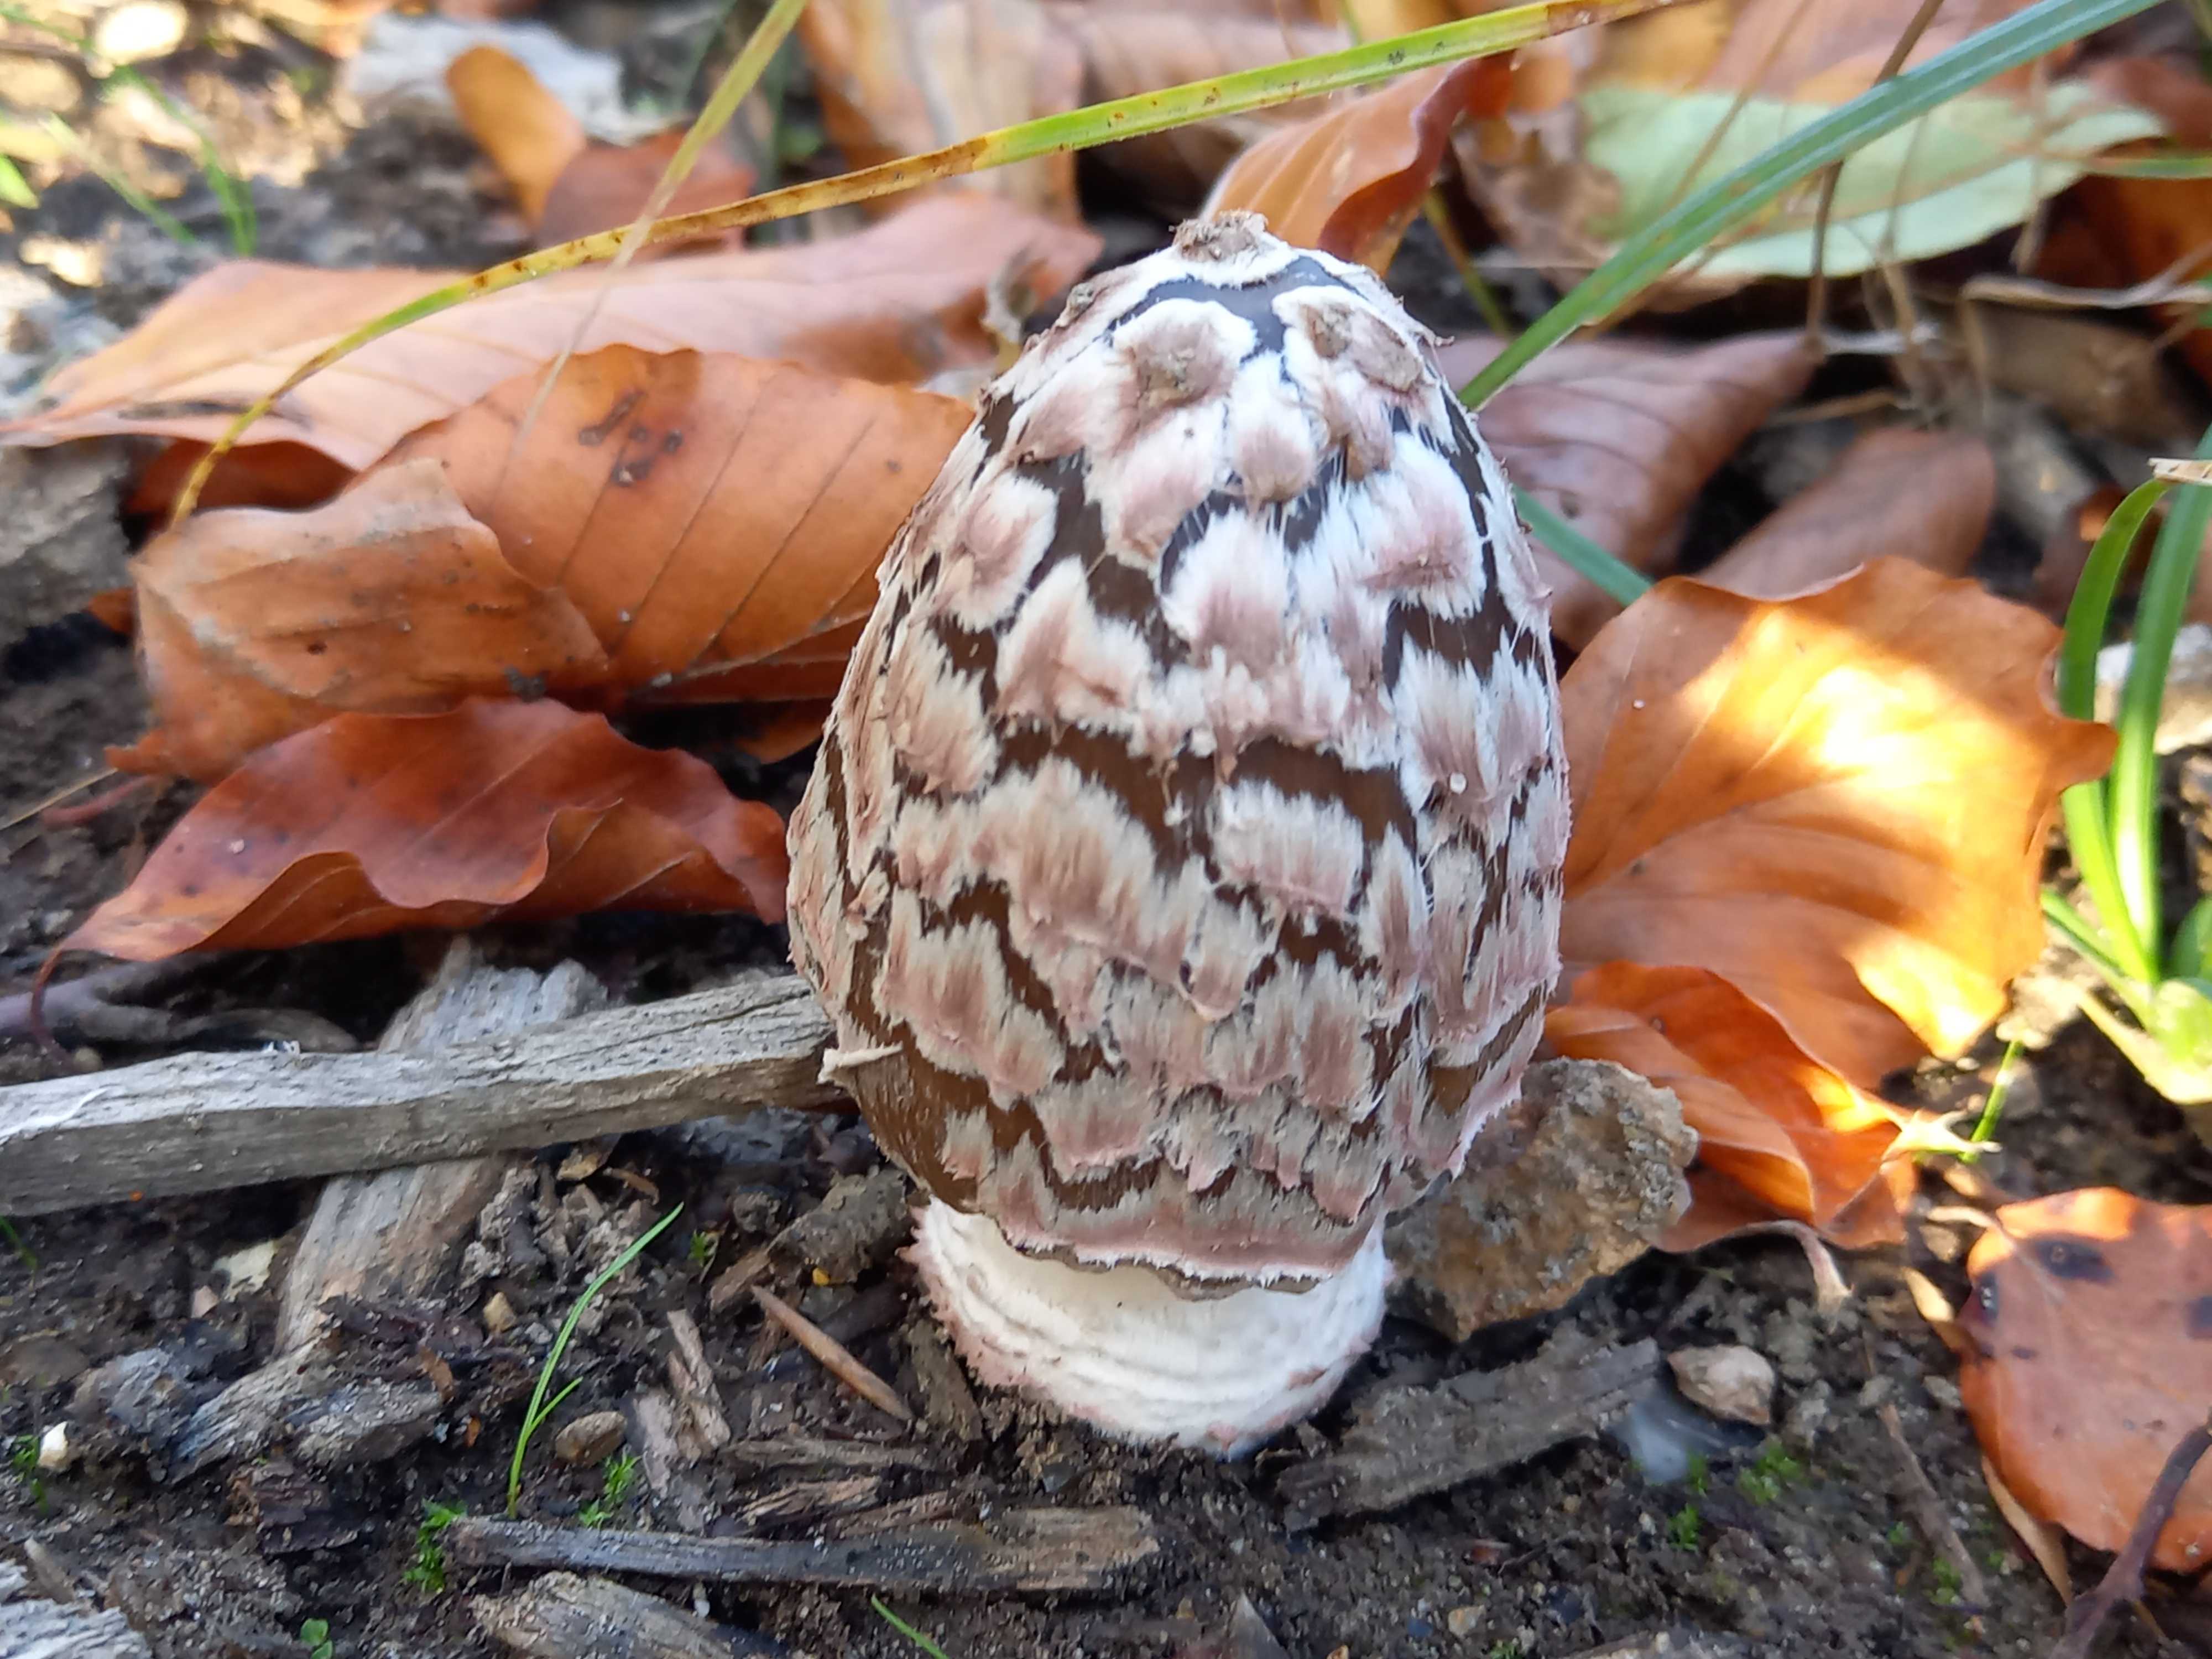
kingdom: Fungi
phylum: Basidiomycota
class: Agaricomycetes
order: Agaricales
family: Psathyrellaceae
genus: Coprinopsis
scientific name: Coprinopsis picacea
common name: skade-blækhat
